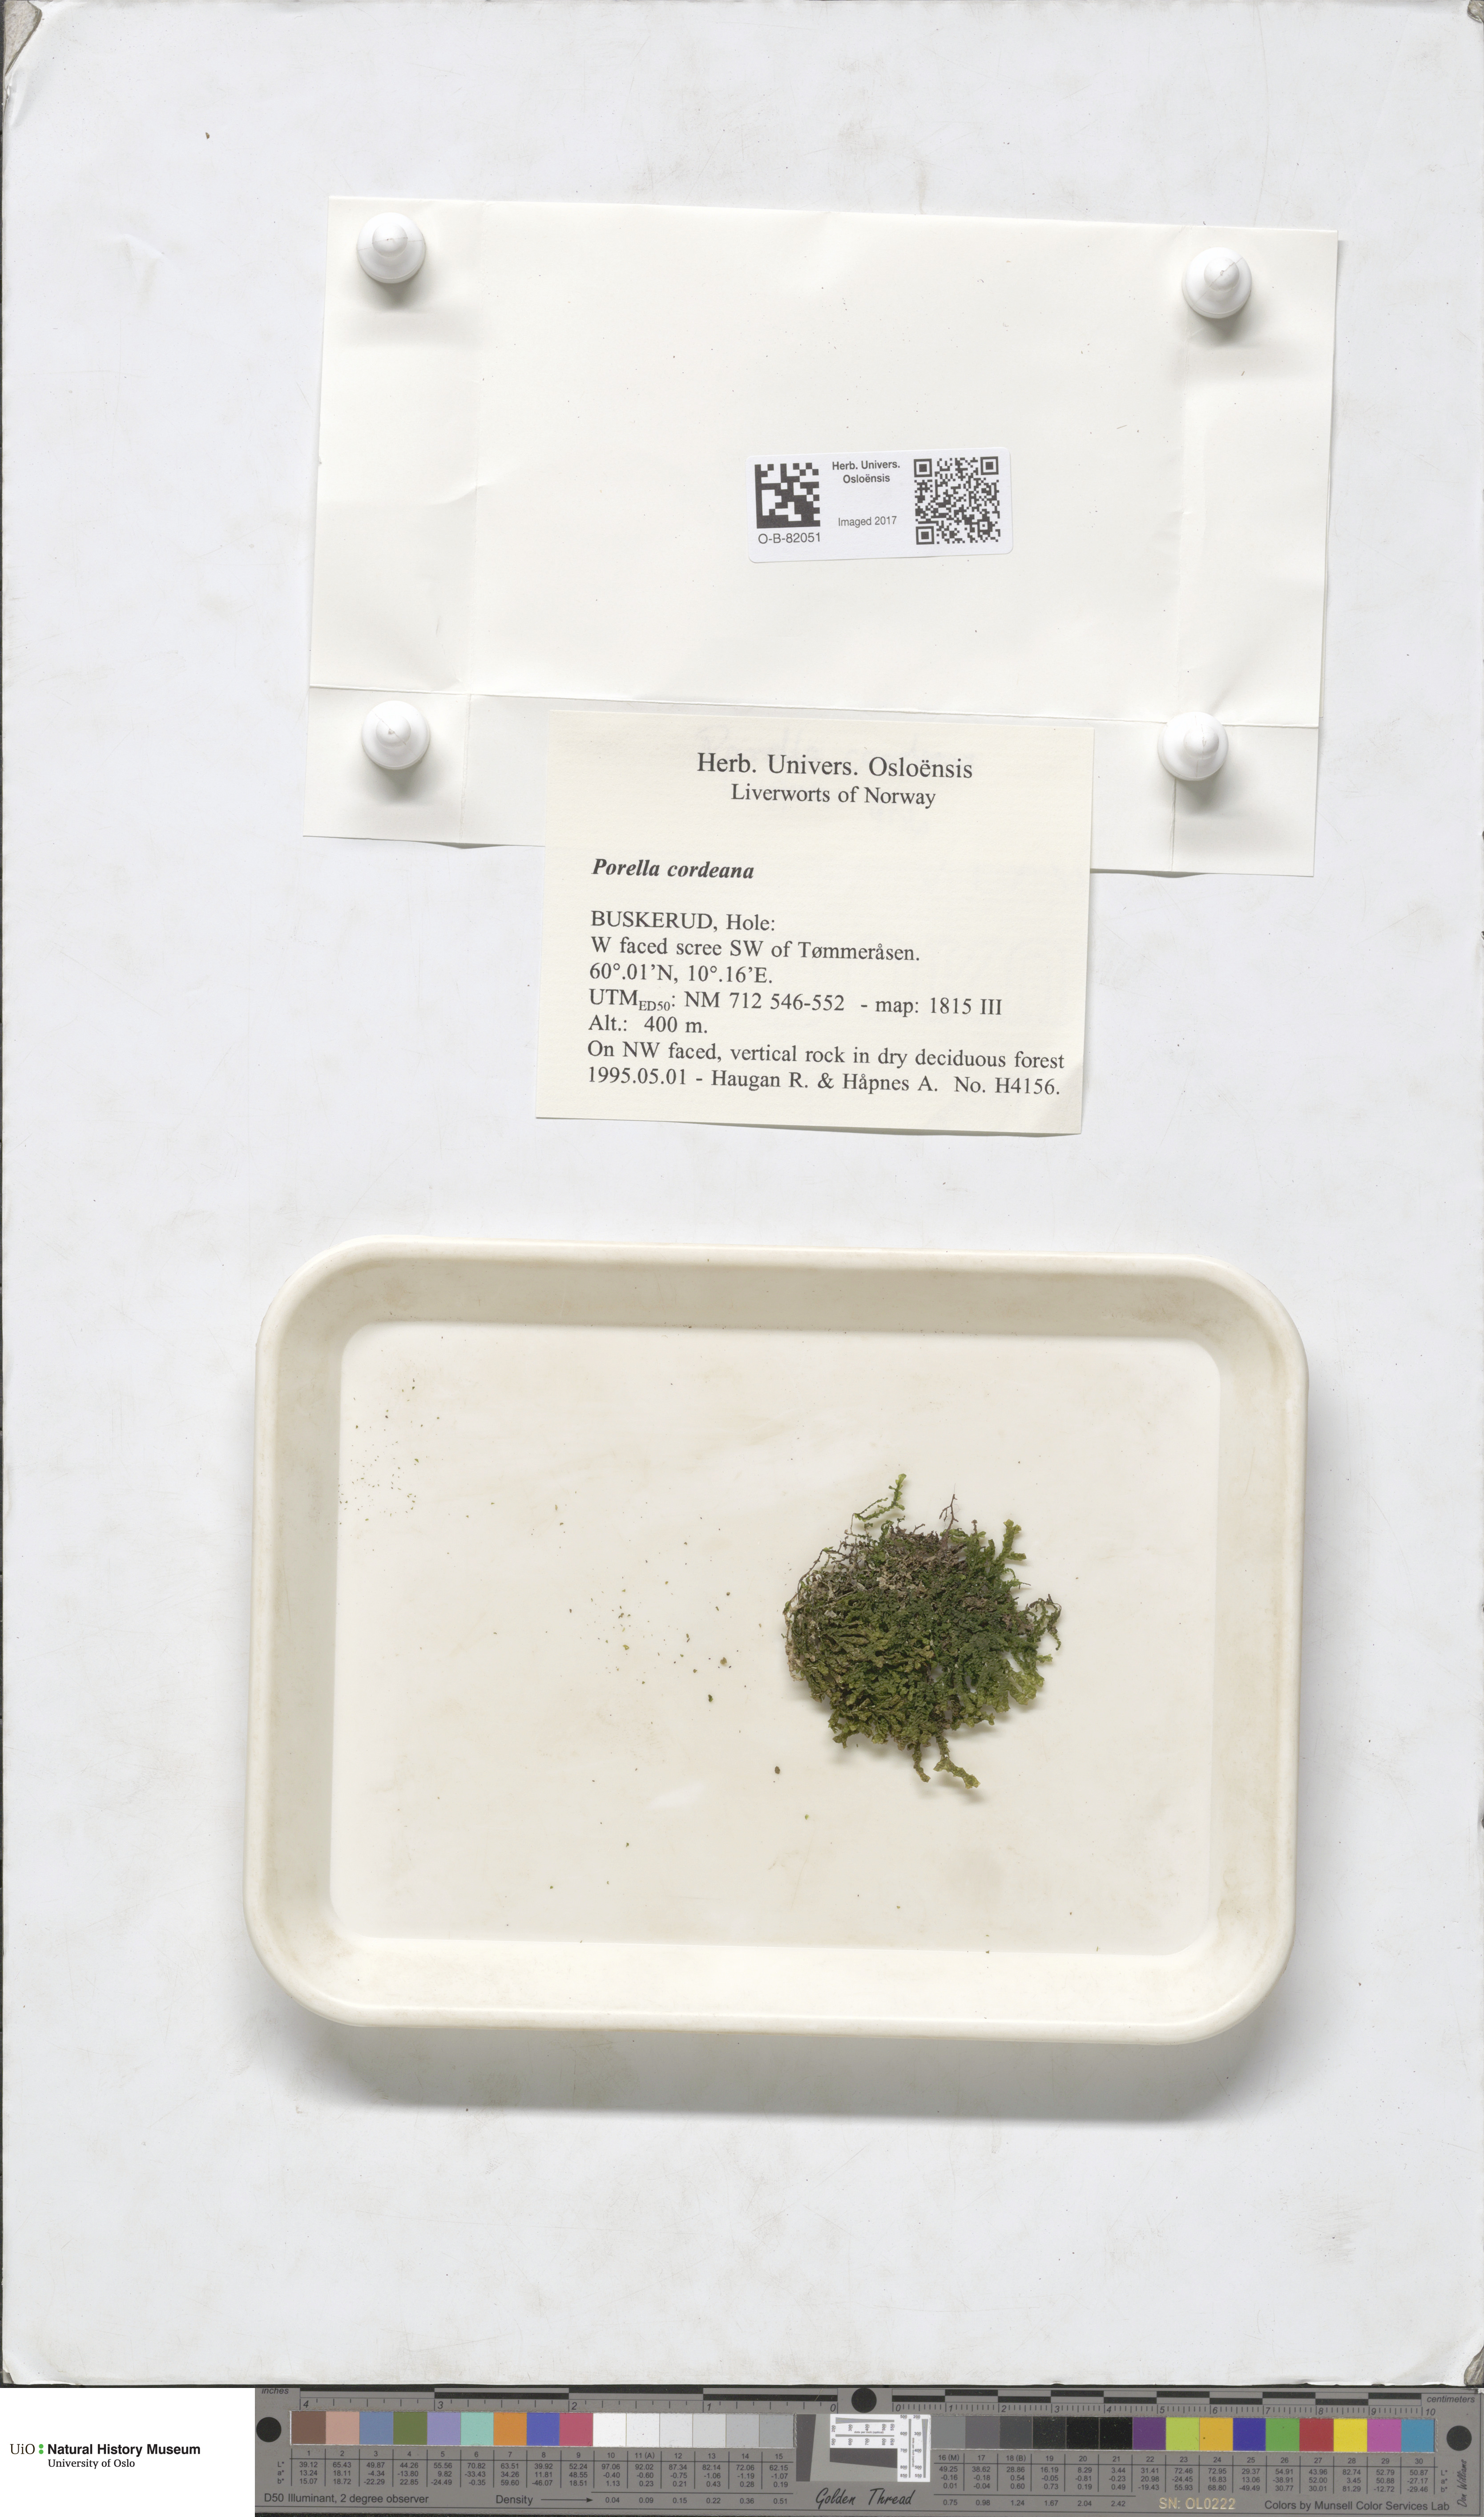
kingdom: Plantae
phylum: Marchantiophyta
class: Jungermanniopsida
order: Porellales
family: Porellaceae
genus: Porella
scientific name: Porella cordaeana
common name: Cliff scalewort
